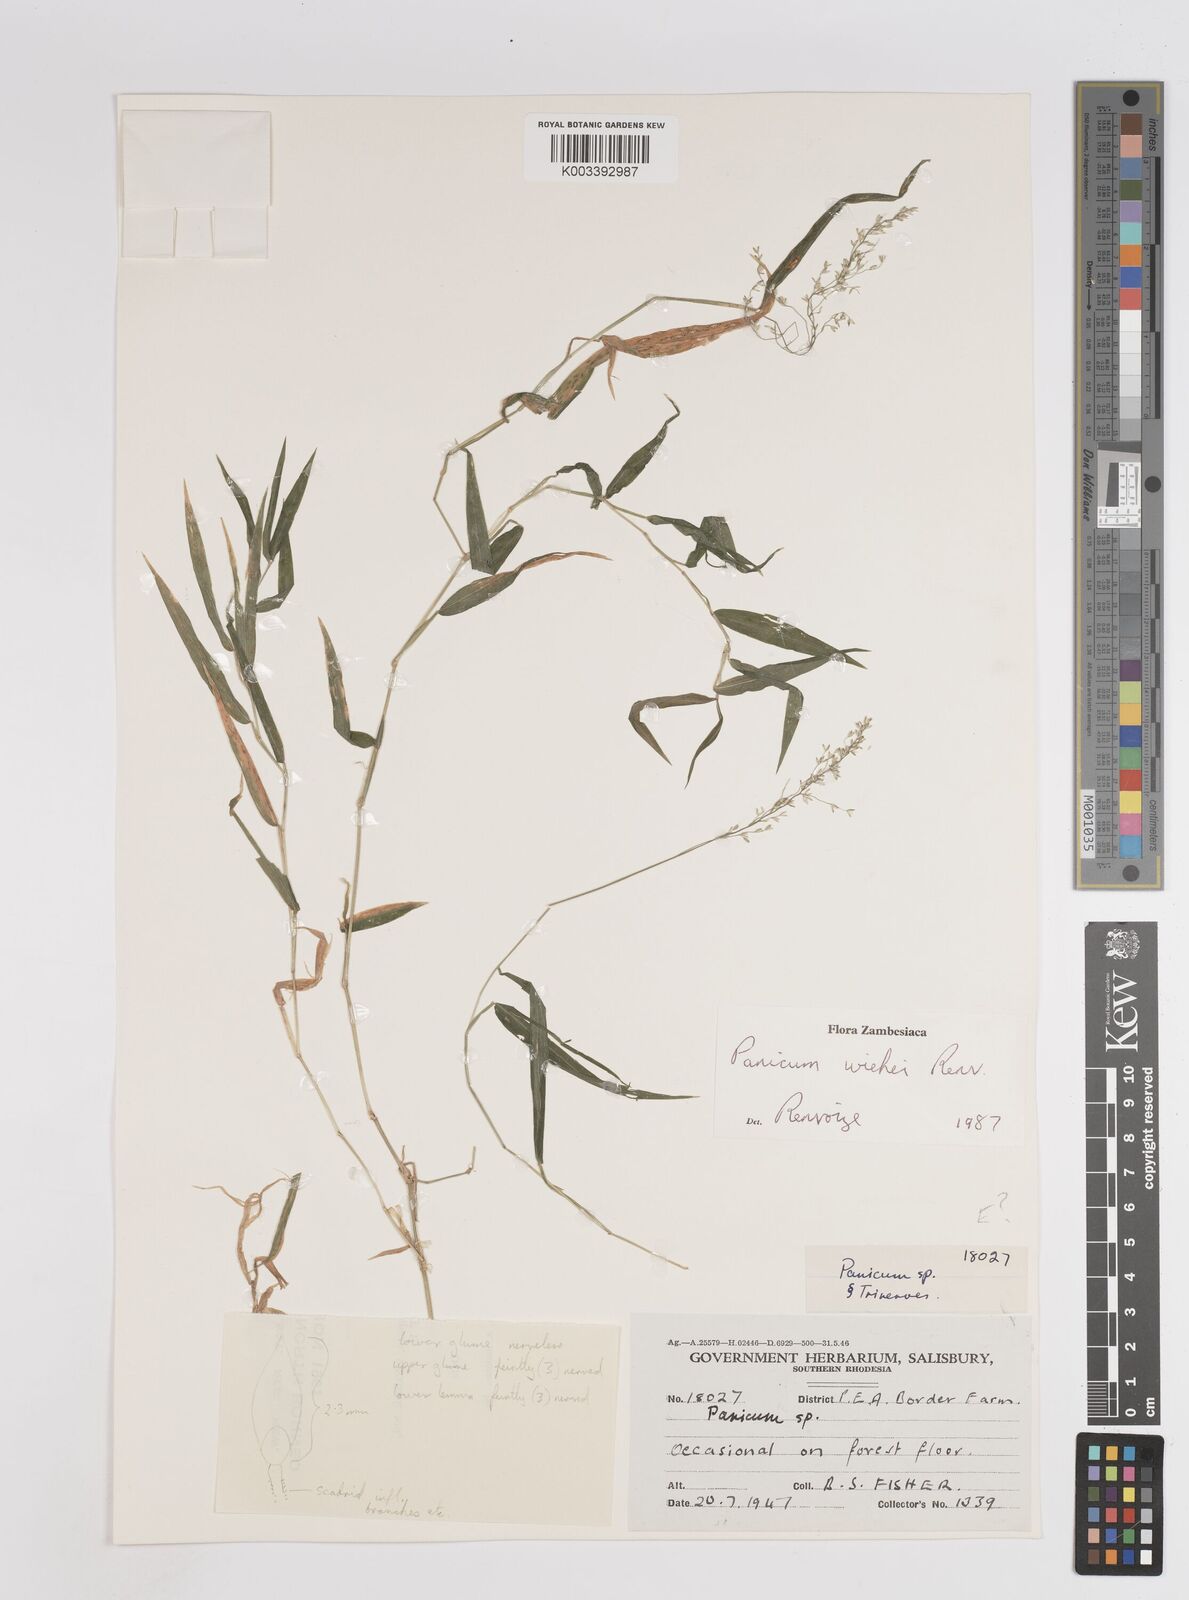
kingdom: Plantae
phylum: Tracheophyta
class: Liliopsida
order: Poales
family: Poaceae
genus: Panicum
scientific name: Panicum wiehei
